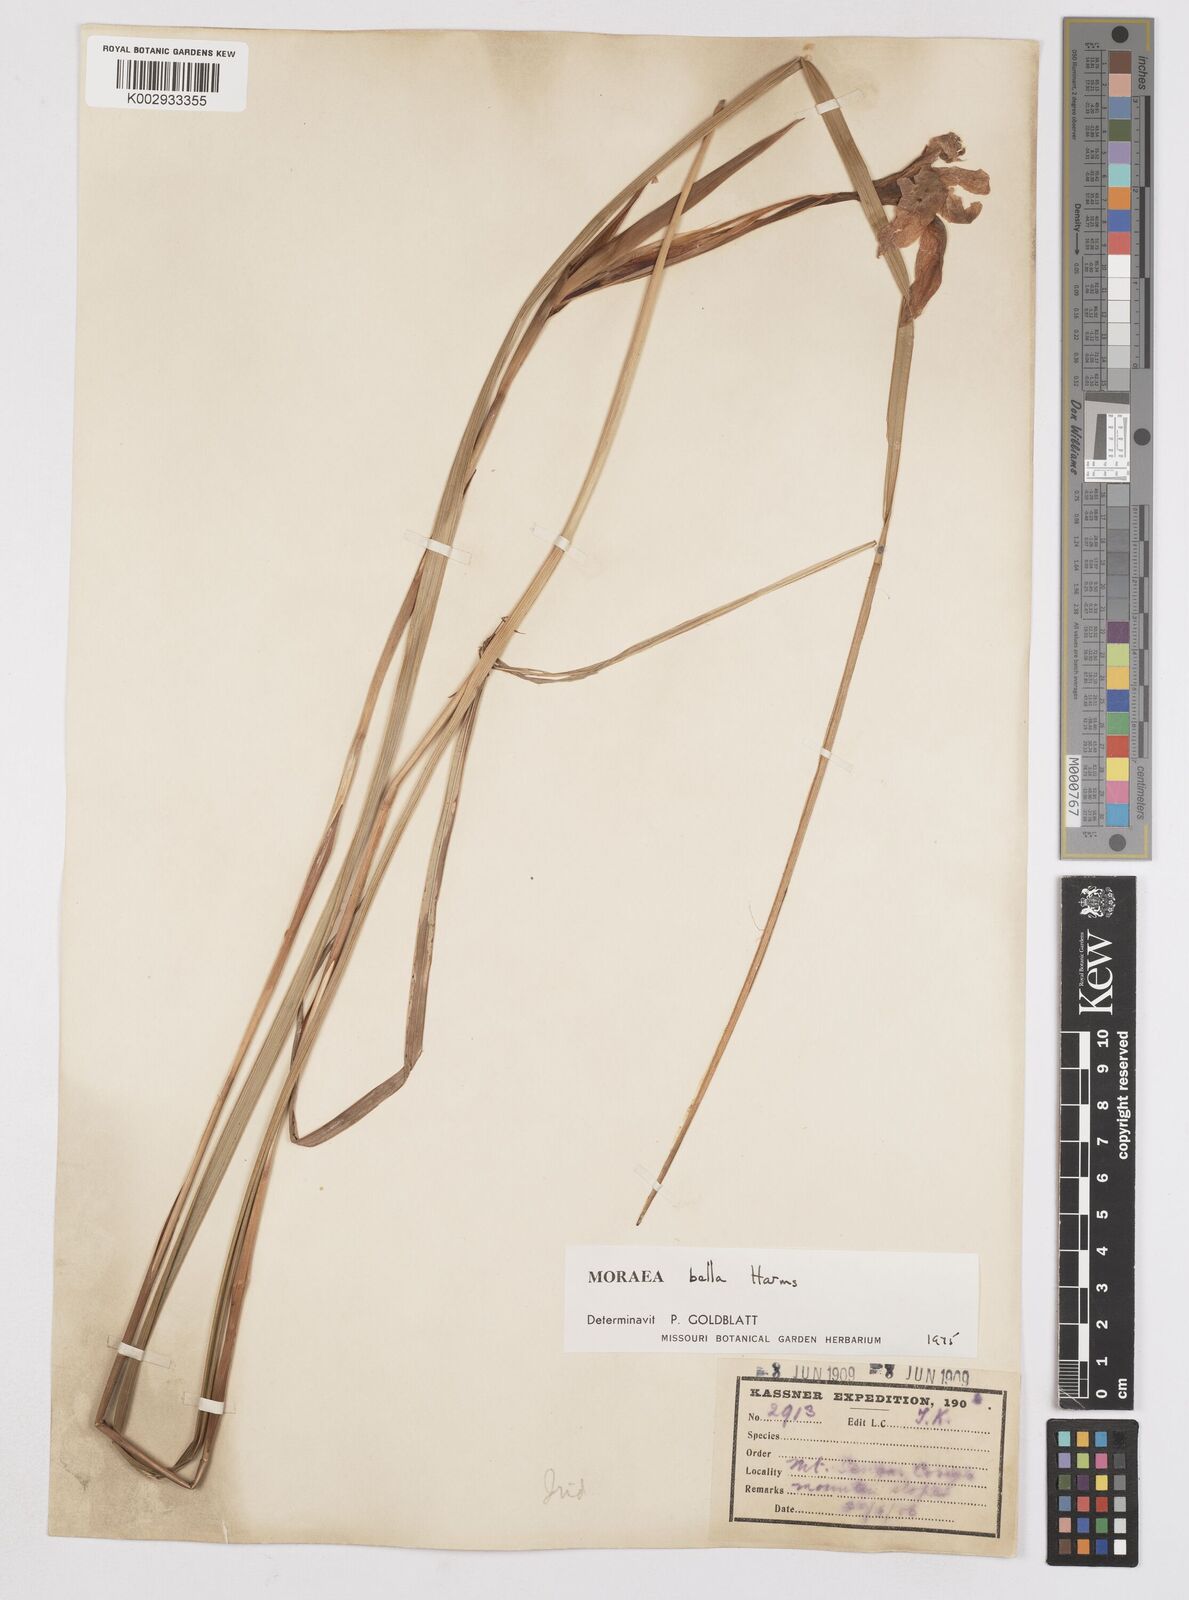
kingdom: Plantae
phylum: Tracheophyta
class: Liliopsida
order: Asparagales
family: Iridaceae
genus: Moraea
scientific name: Moraea bella
